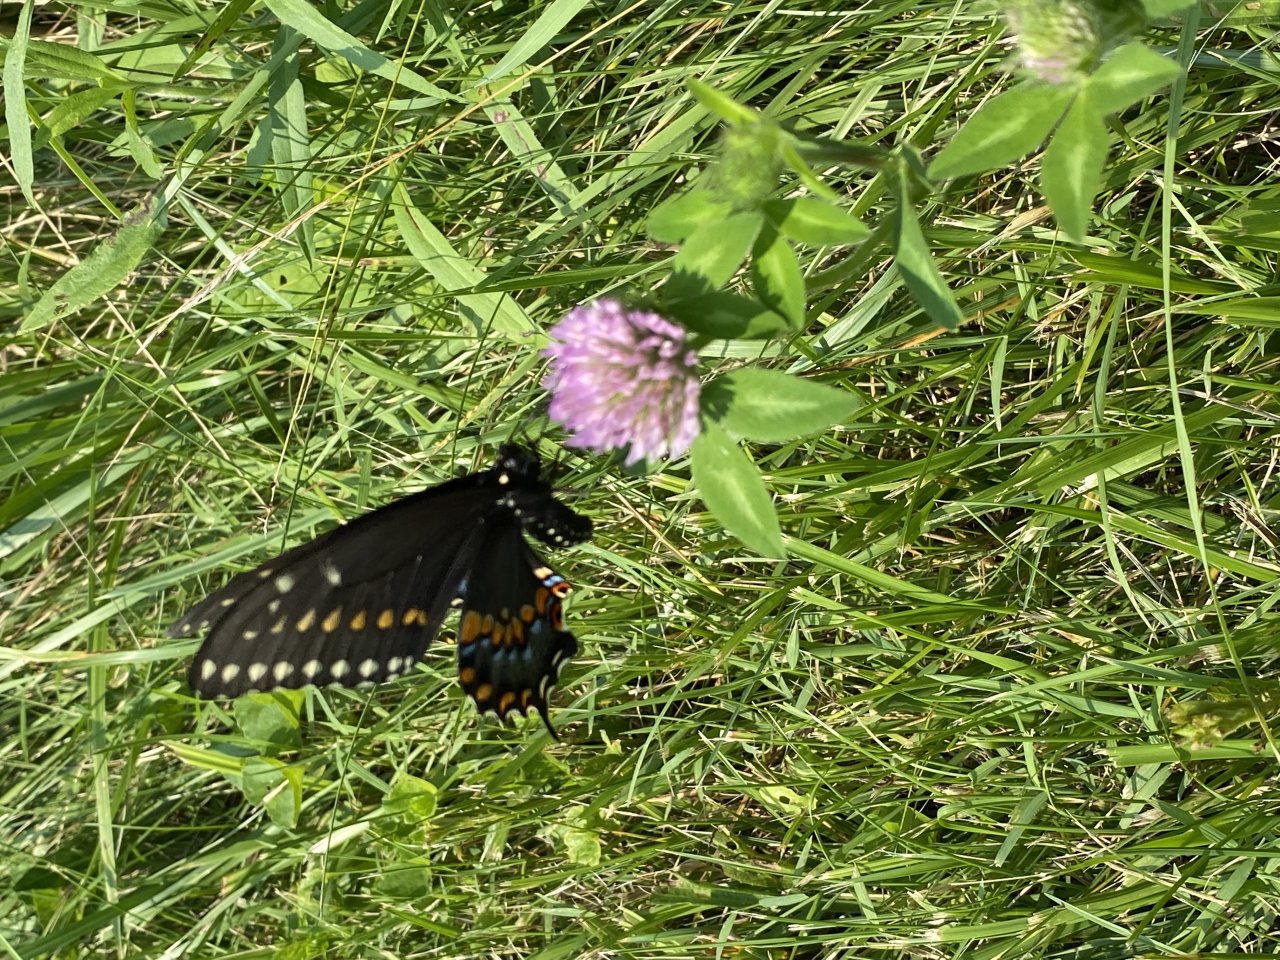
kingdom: Animalia
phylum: Arthropoda
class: Insecta
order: Lepidoptera
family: Papilionidae
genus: Papilio
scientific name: Papilio polyxenes
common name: Black Swallowtail
